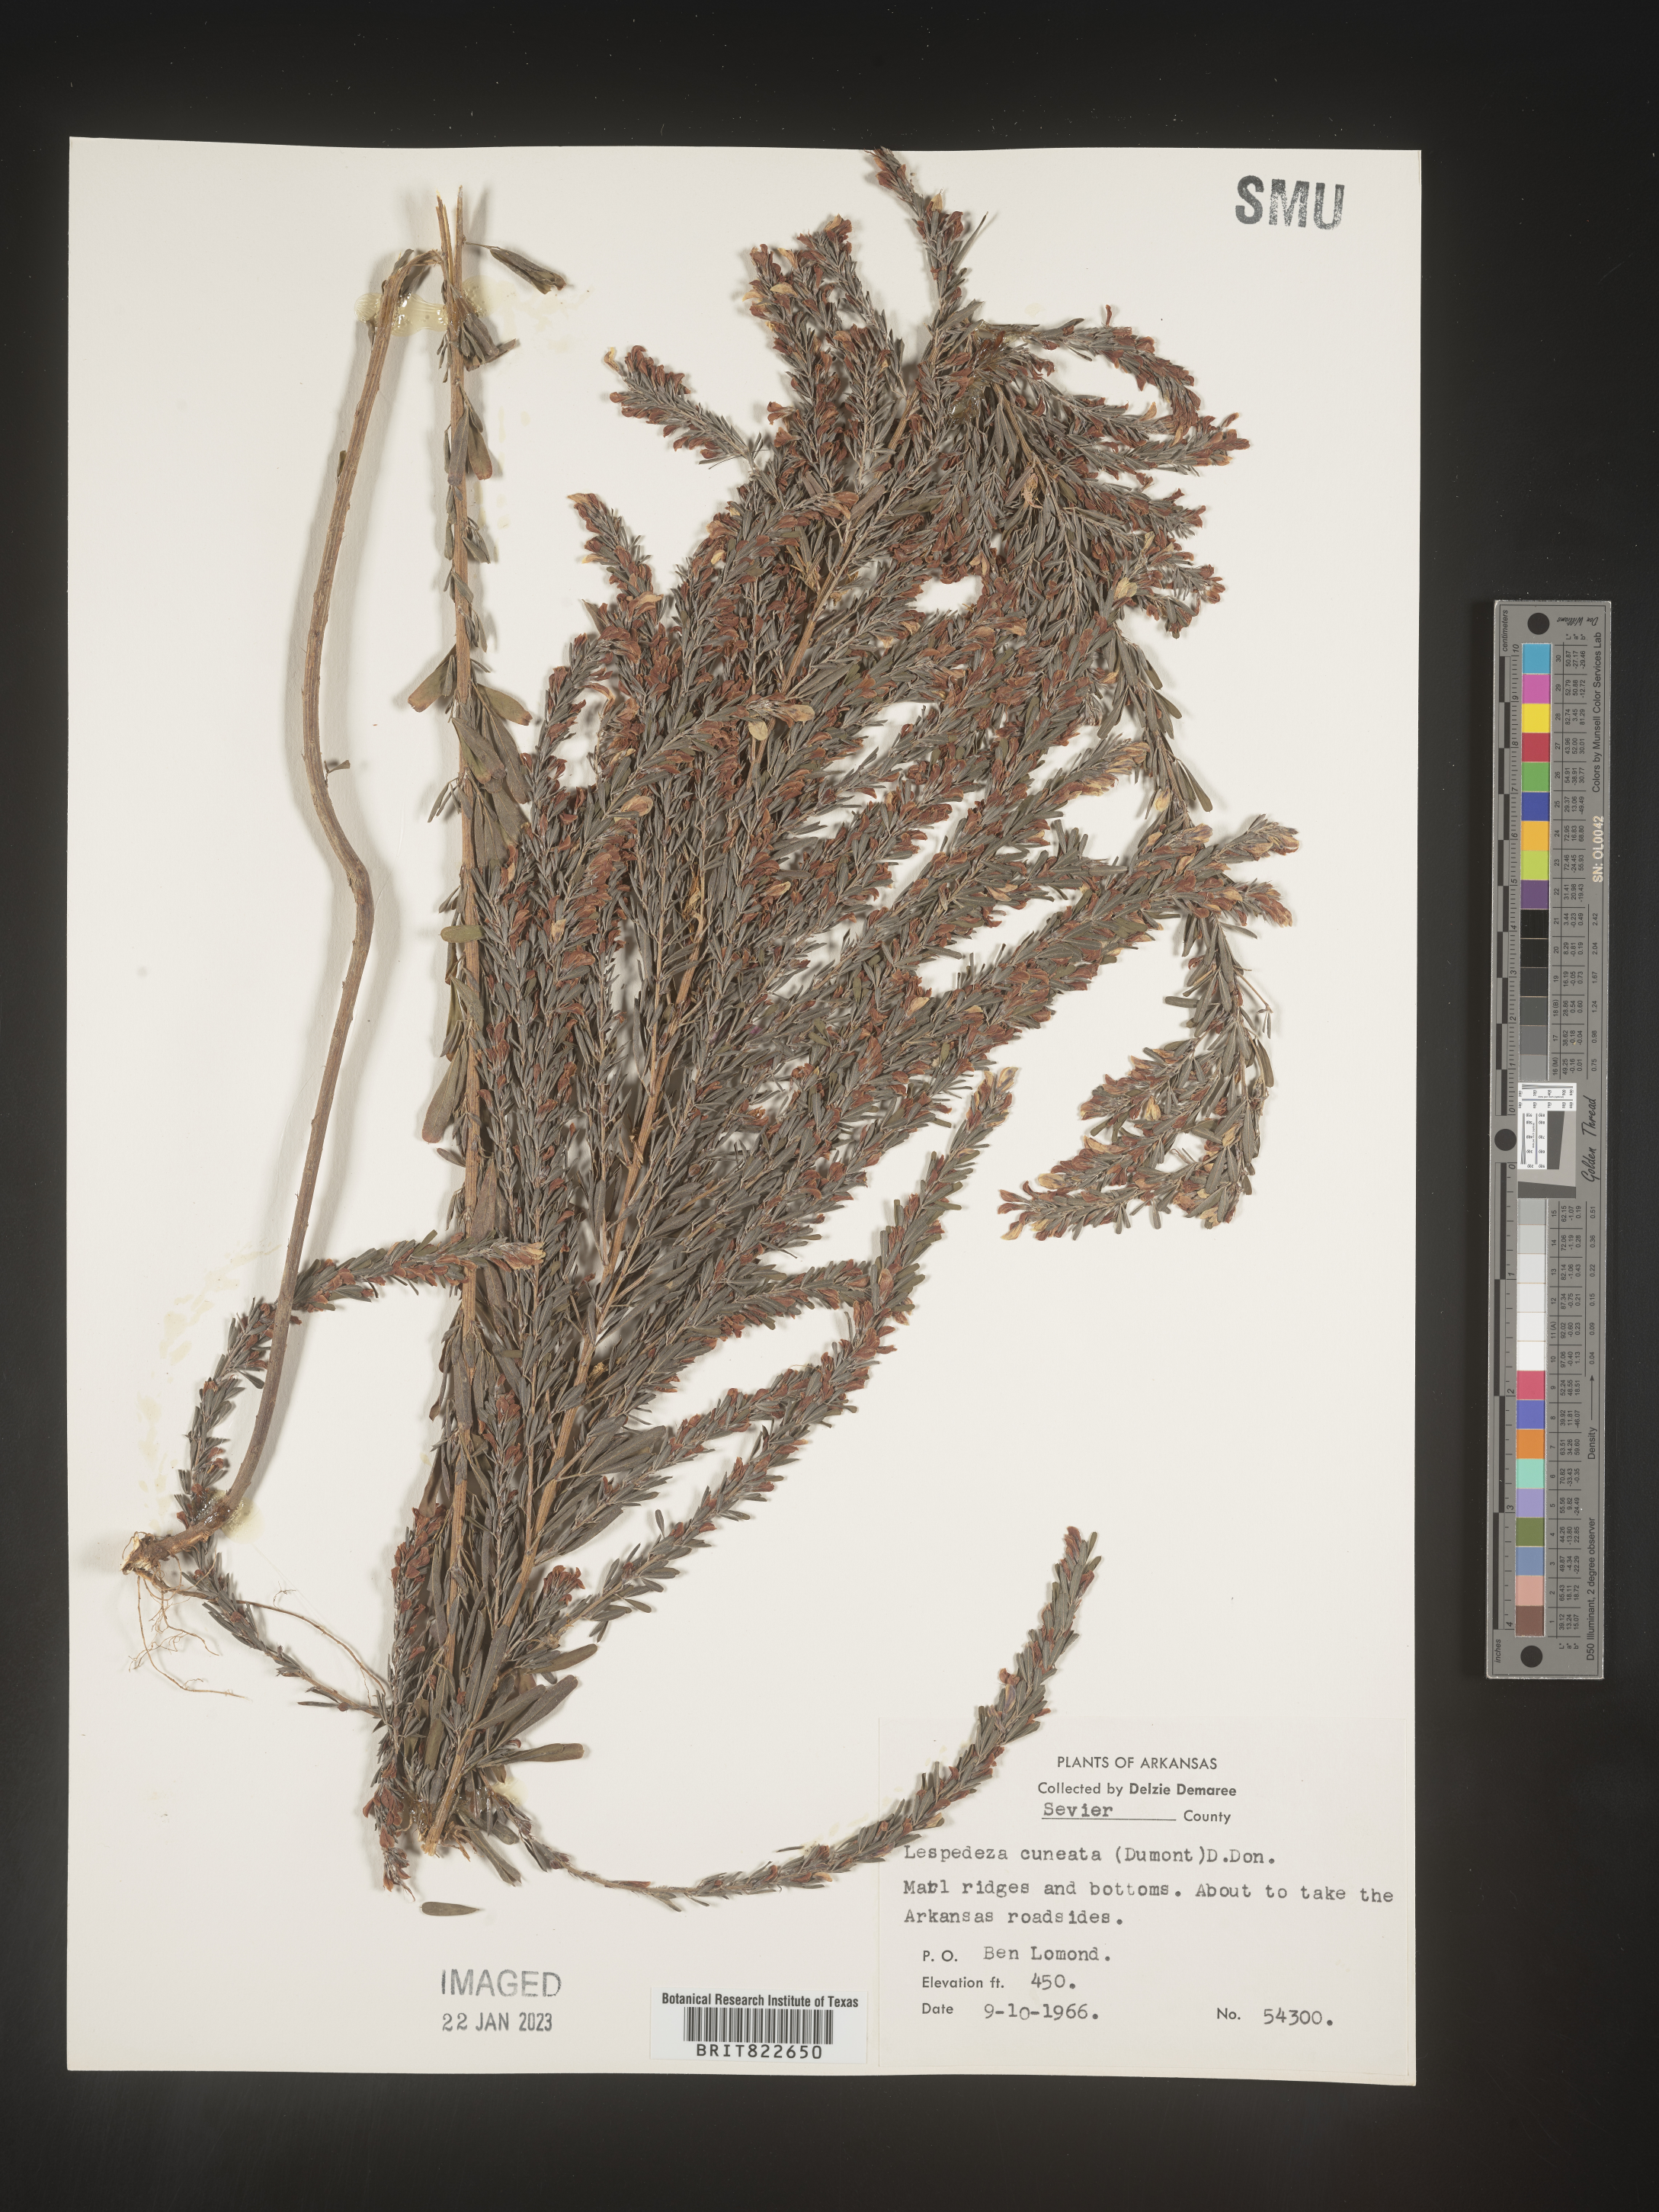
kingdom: Plantae
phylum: Tracheophyta
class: Magnoliopsida
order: Fabales
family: Fabaceae
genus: Lespedeza
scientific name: Lespedeza cuneata
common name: Chinese bush-clover
